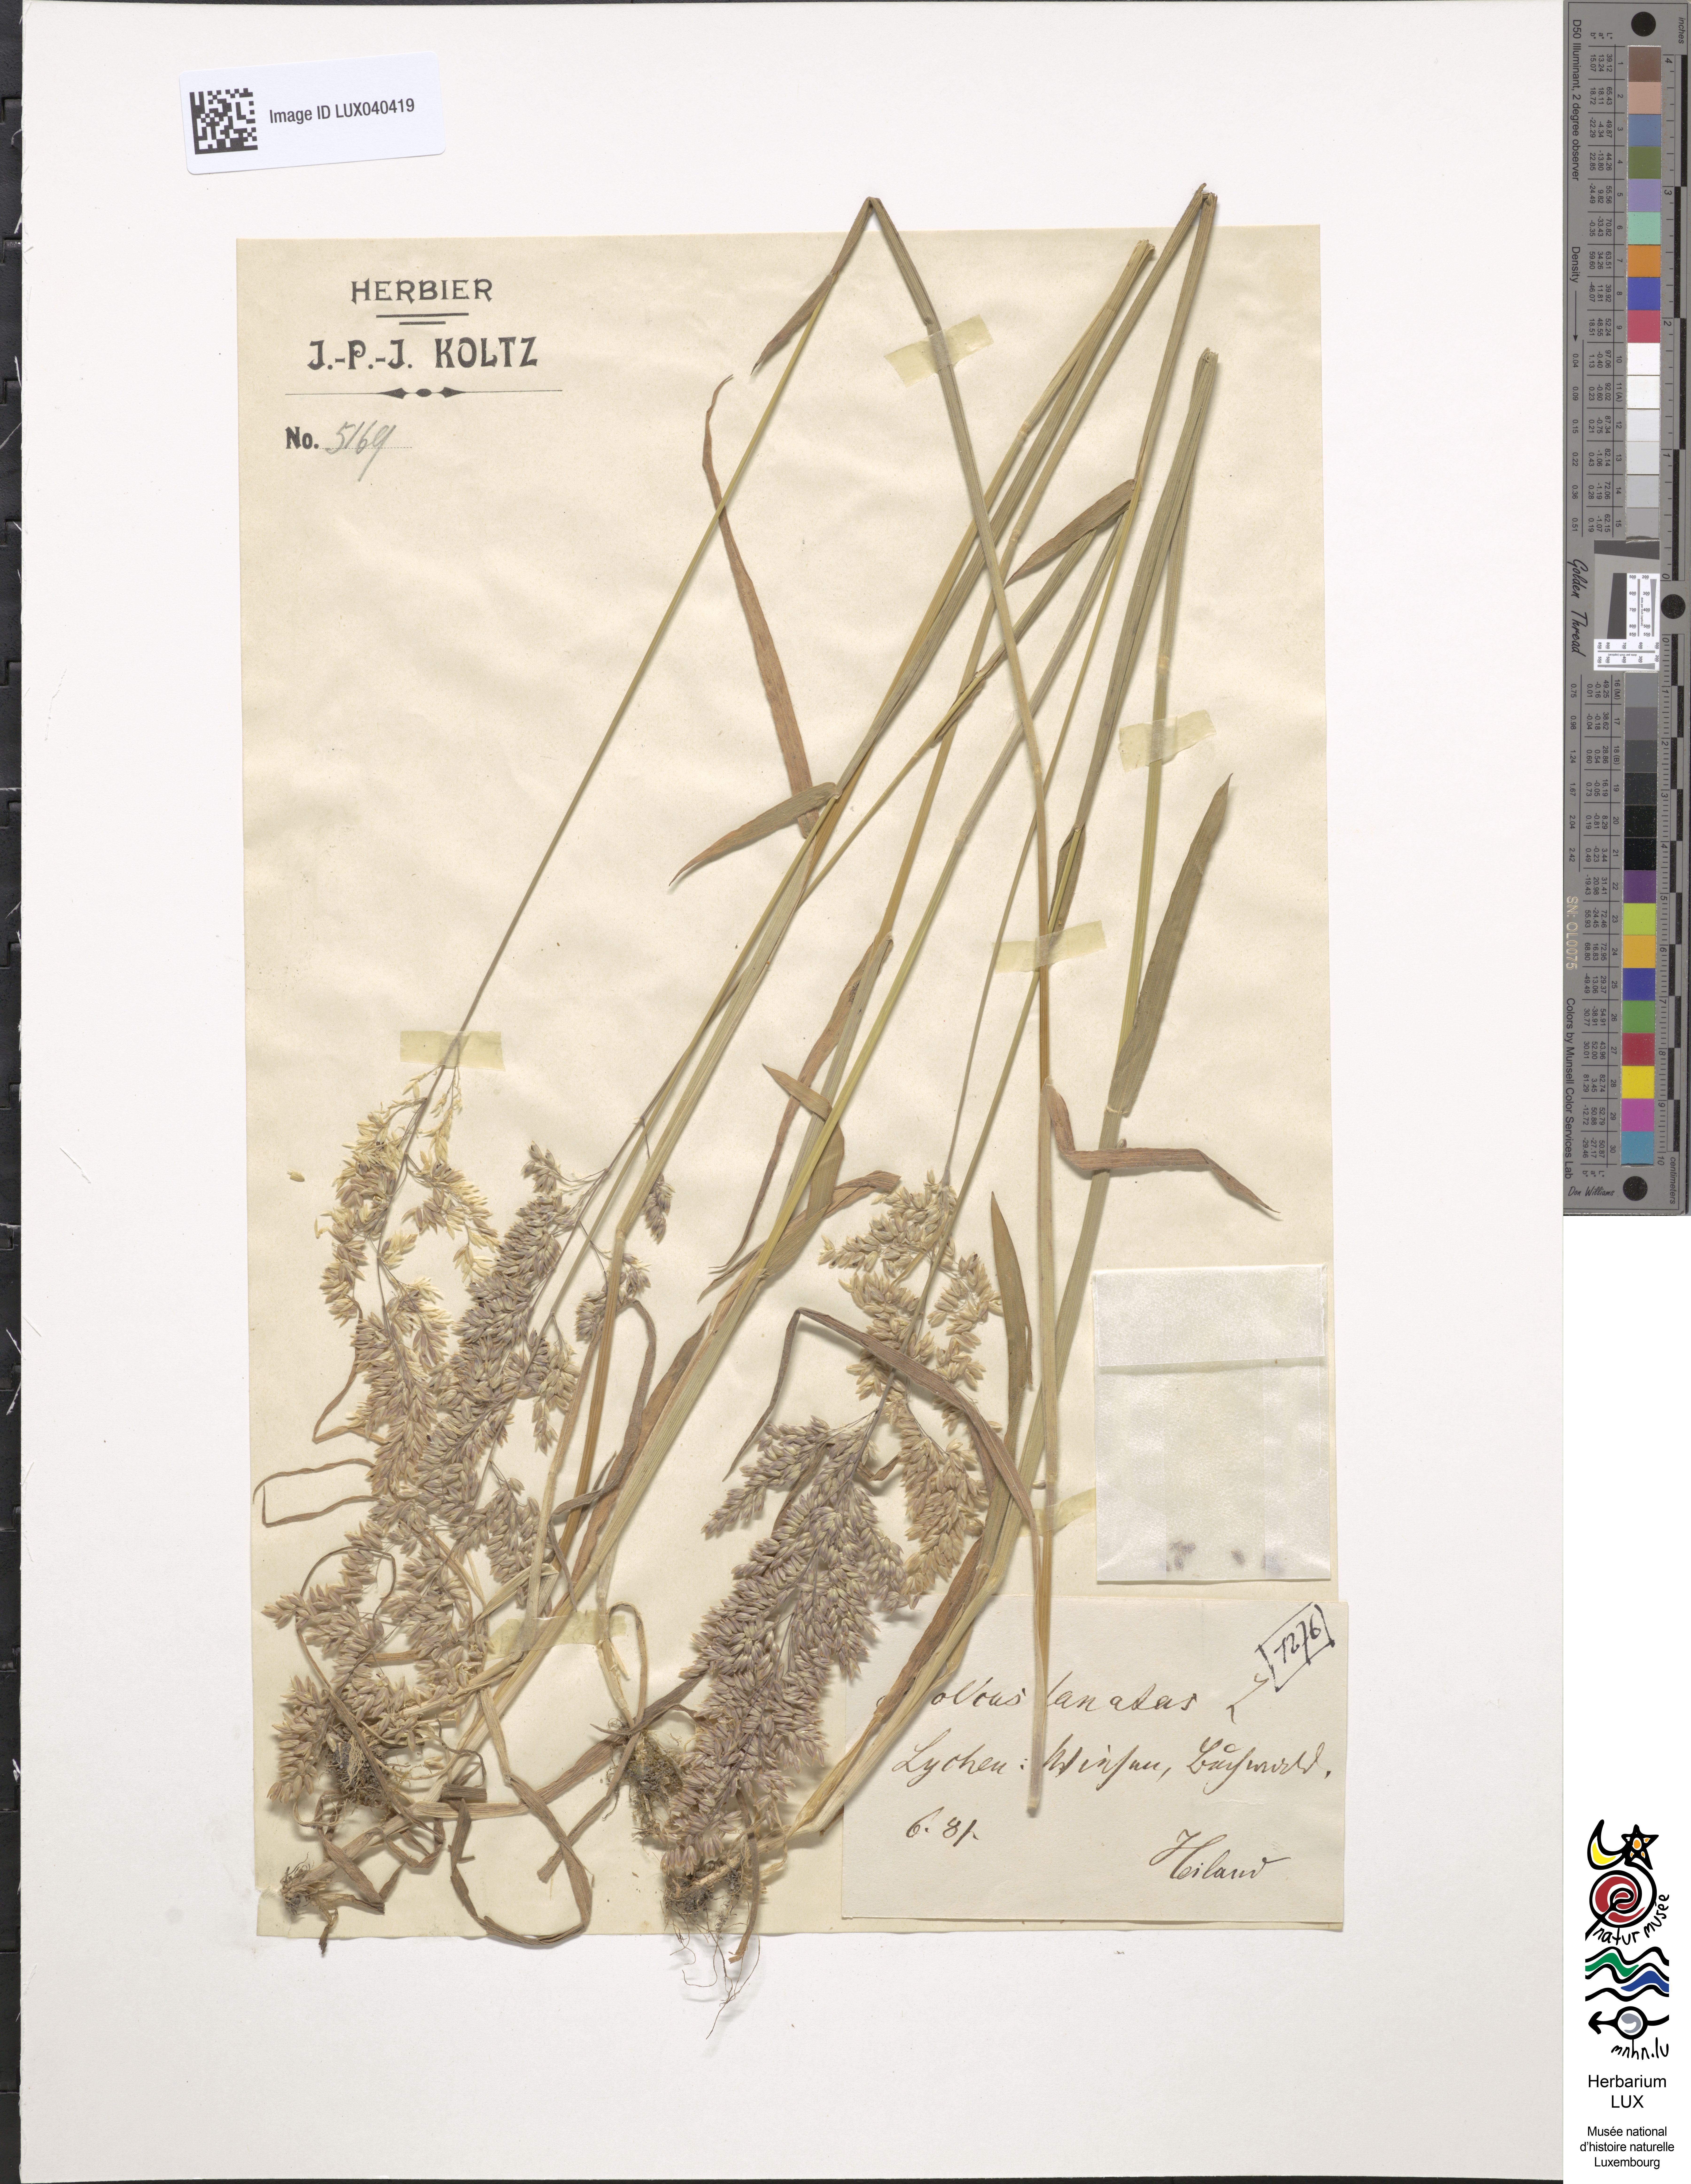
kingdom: Plantae
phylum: Tracheophyta
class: Liliopsida
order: Poales
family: Poaceae
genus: Holcus
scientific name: Holcus lanatus
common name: Yorkshire-fog
